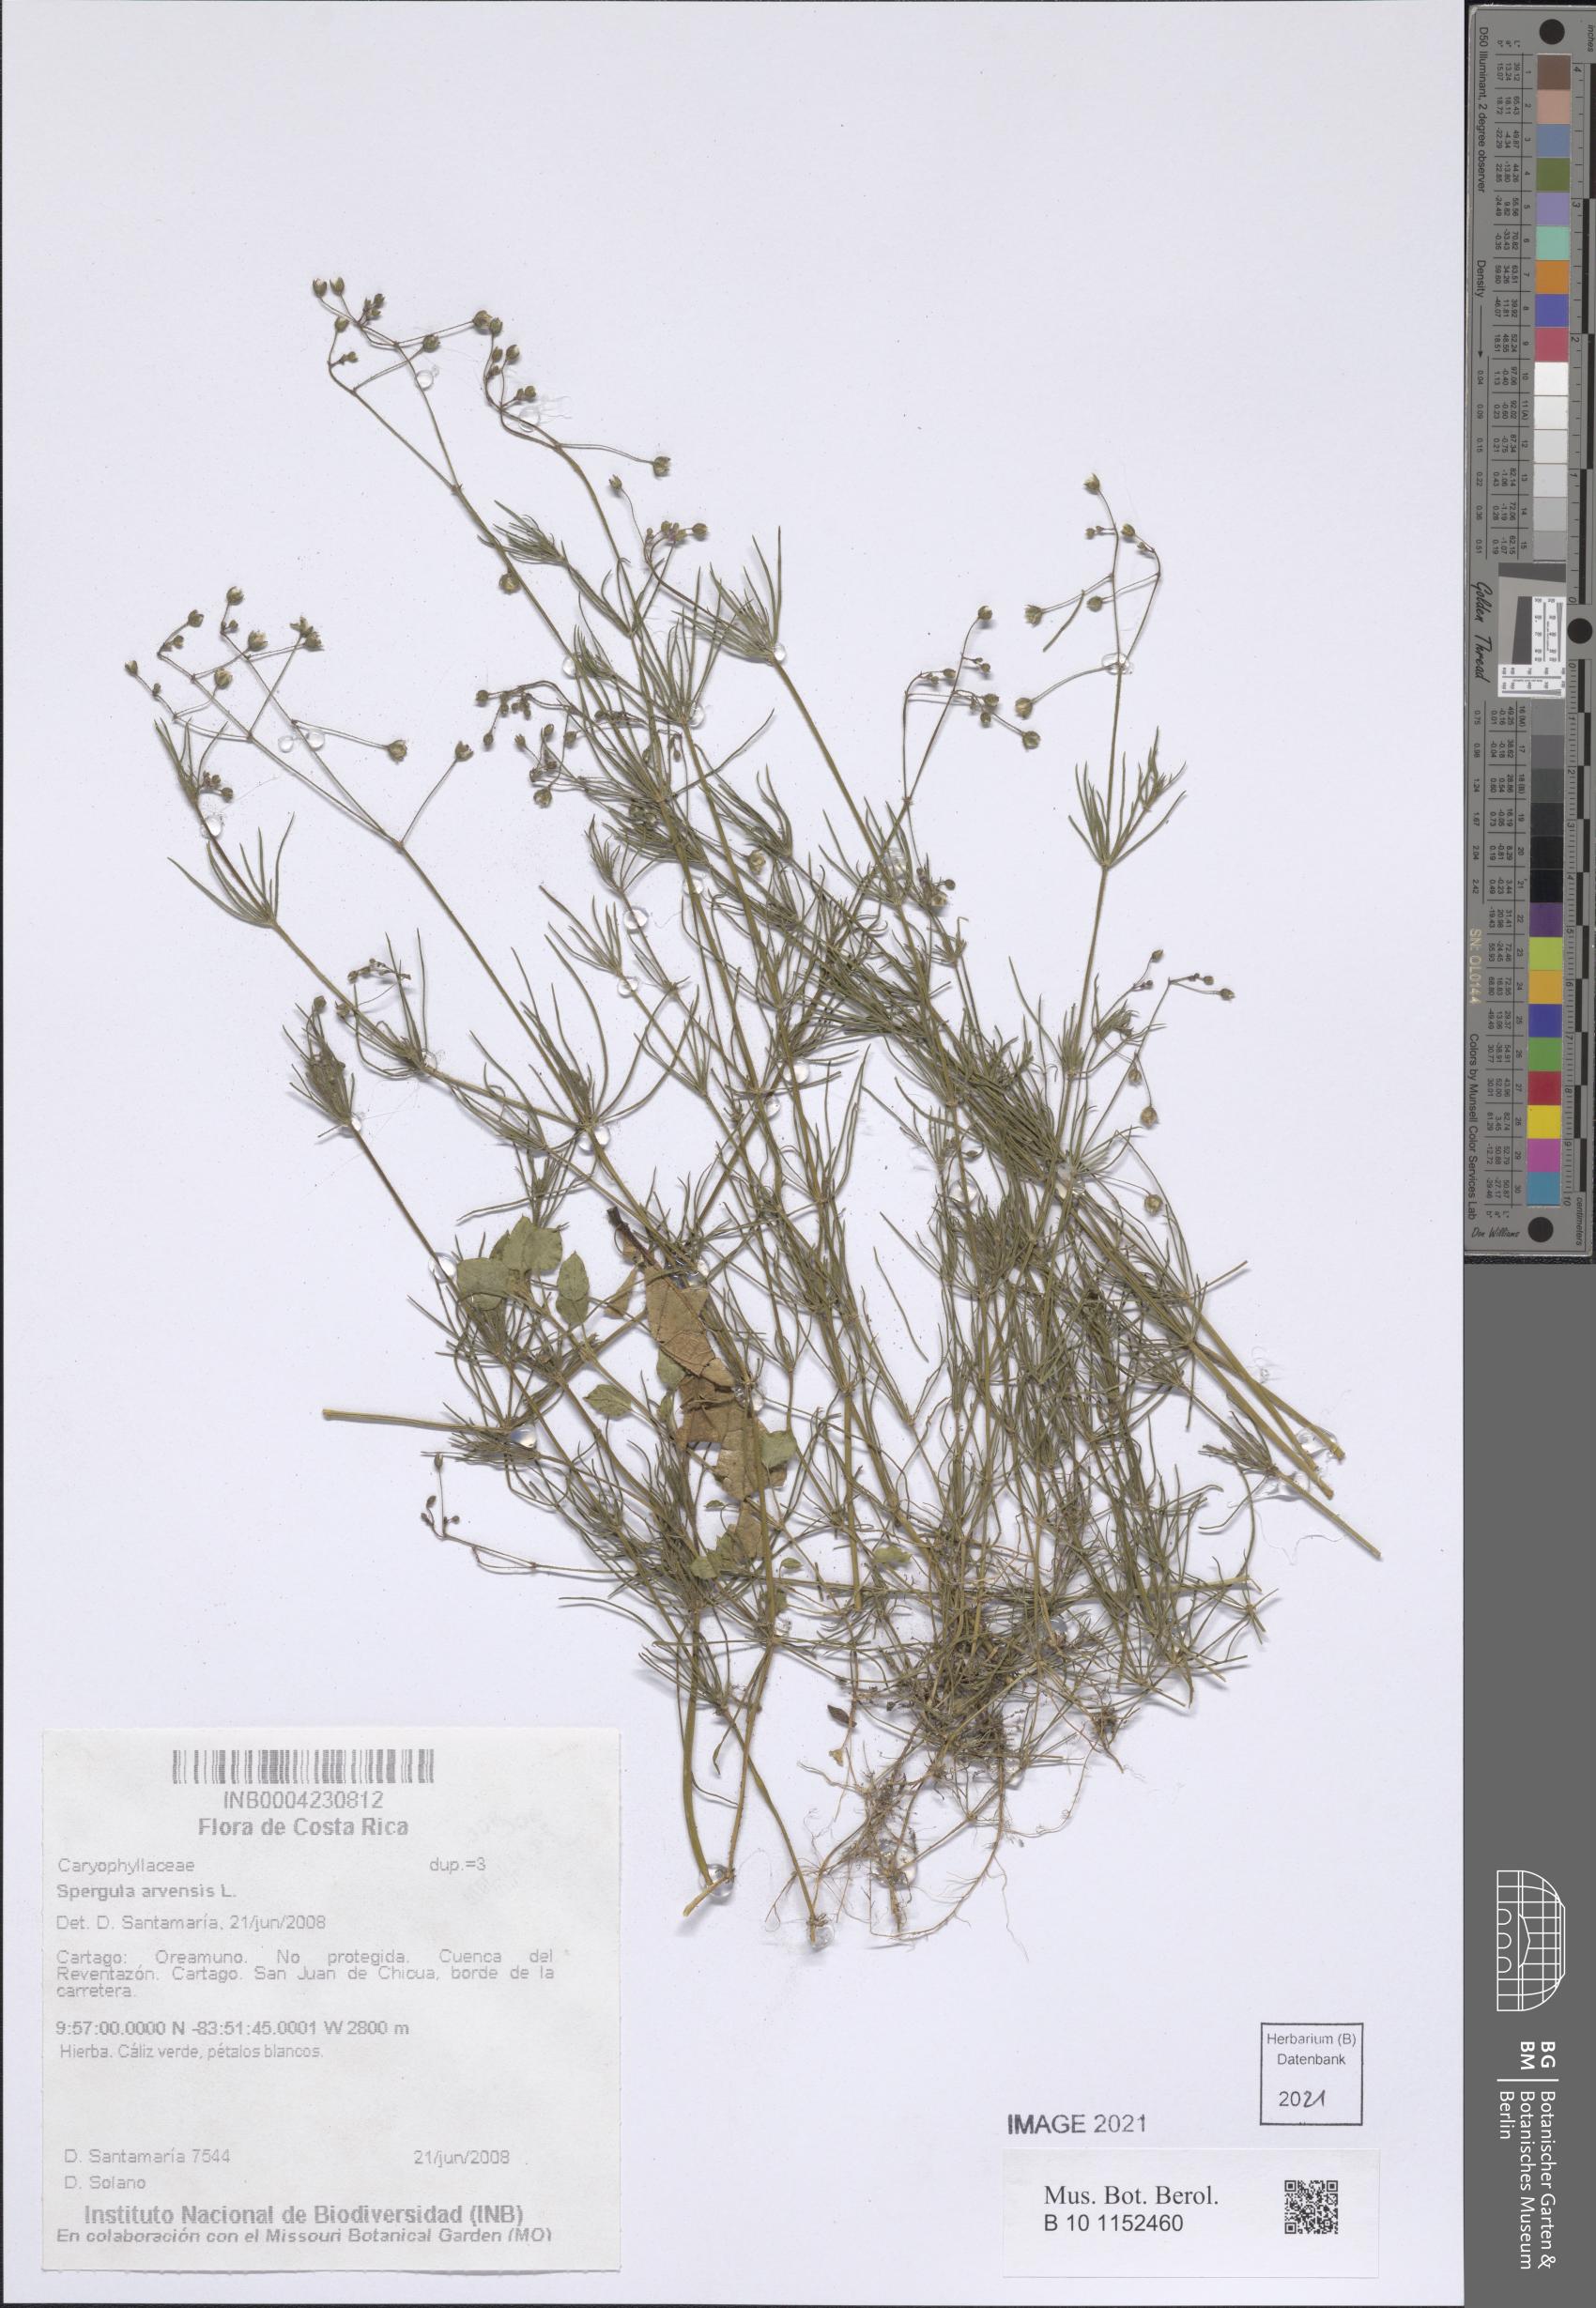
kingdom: Plantae
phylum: Tracheophyta
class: Magnoliopsida
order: Caryophyllales
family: Caryophyllaceae
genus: Spergula
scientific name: Spergula arvensis
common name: Corn spurrey
